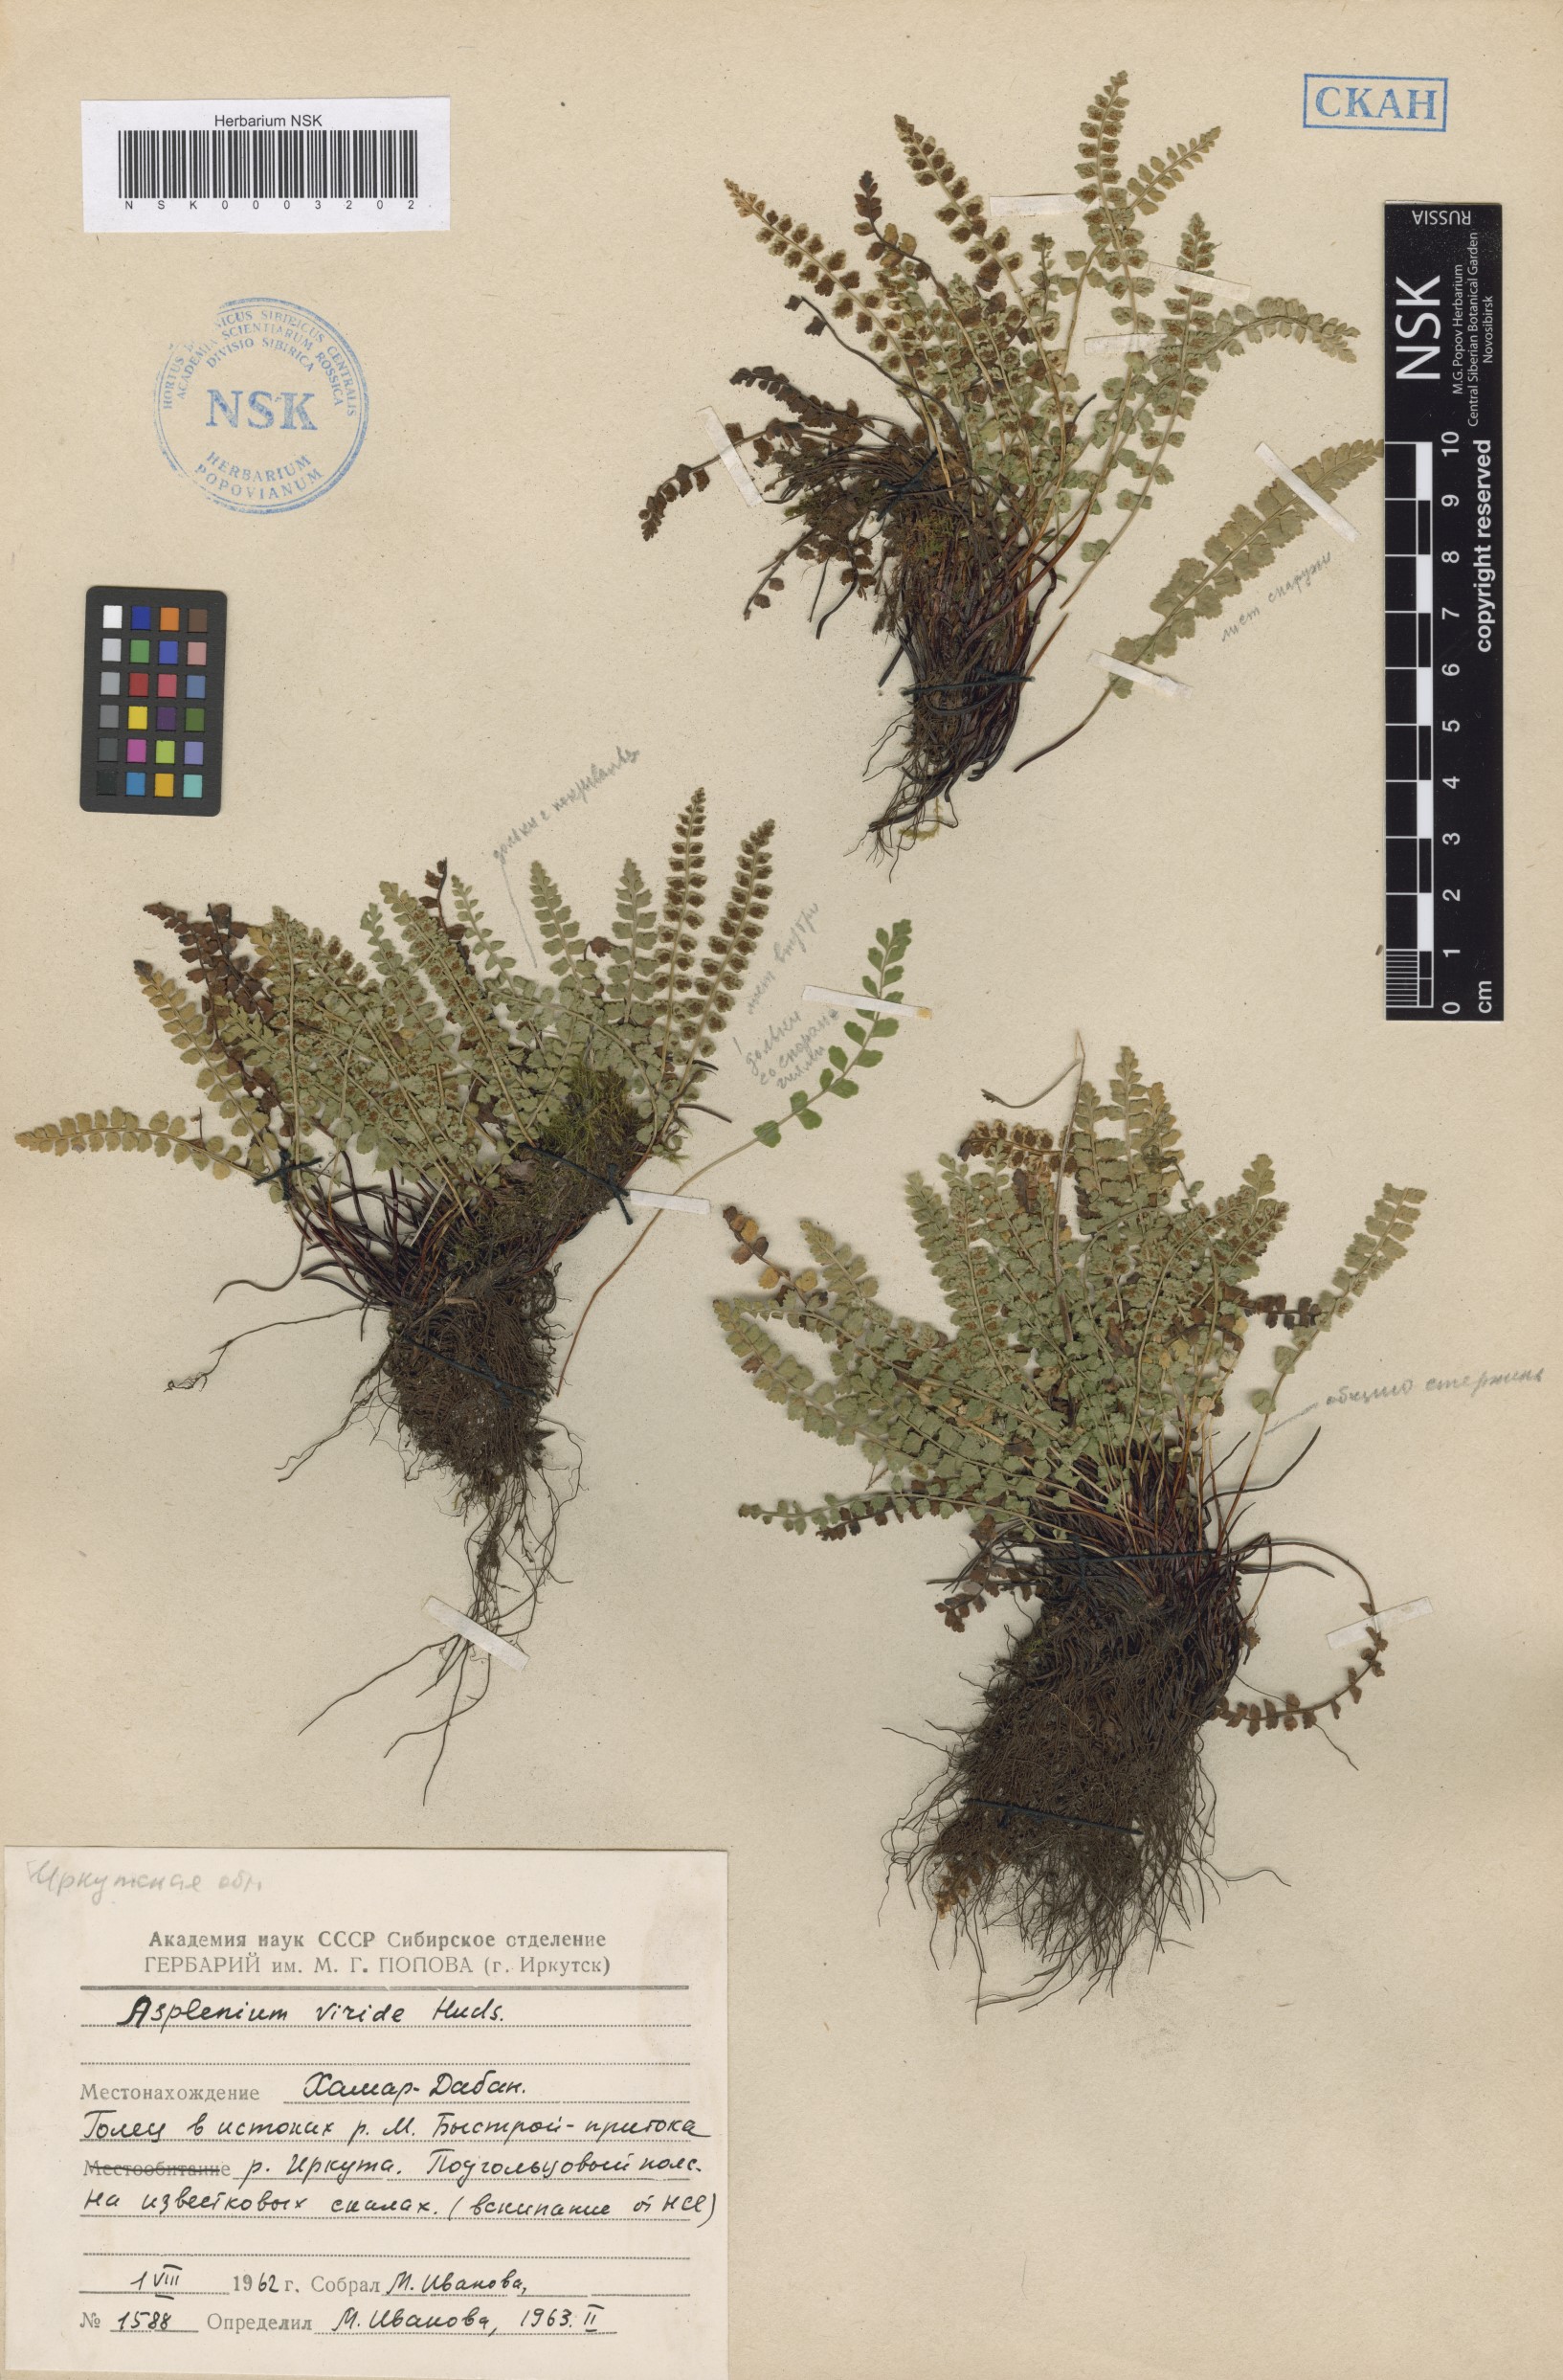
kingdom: Plantae
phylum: Tracheophyta
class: Polypodiopsida
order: Polypodiales
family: Aspleniaceae
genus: Asplenium
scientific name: Asplenium viride
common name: Green spleenwort
